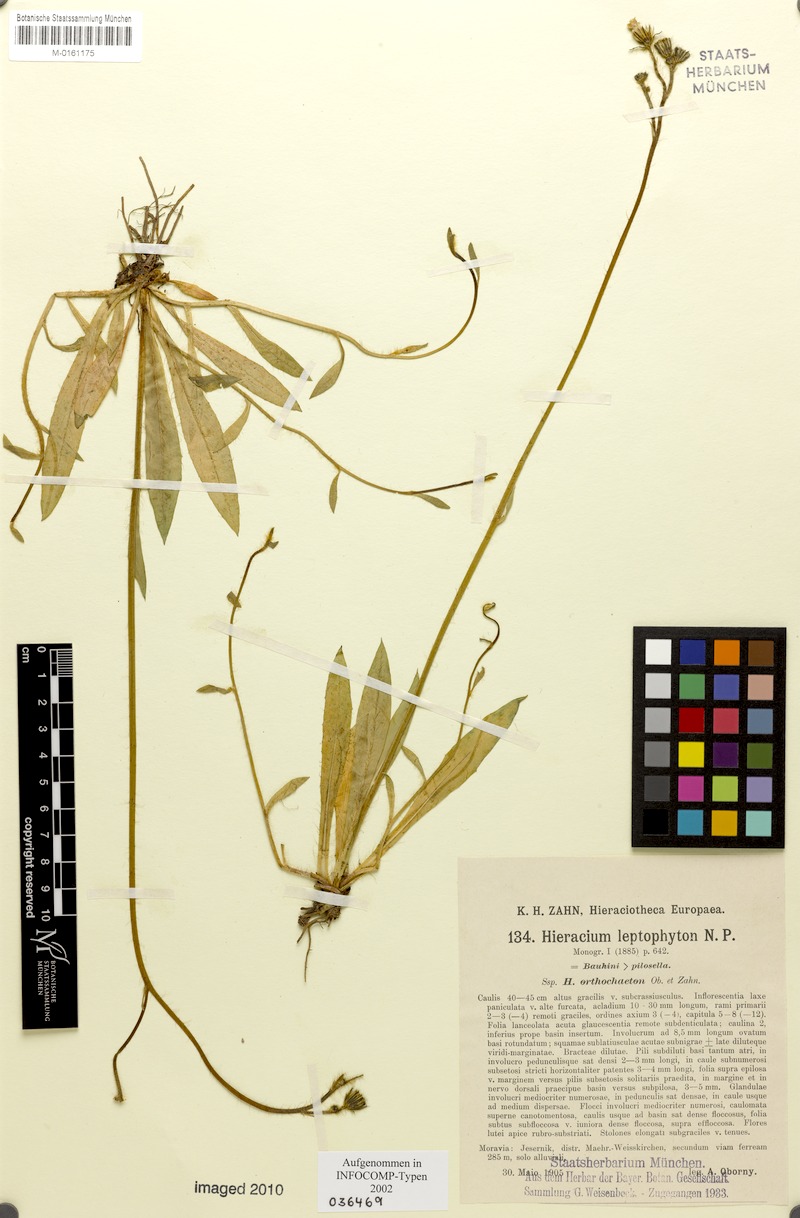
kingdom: Plantae
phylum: Tracheophyta
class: Magnoliopsida
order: Asterales
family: Asteraceae
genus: Pilosella
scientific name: Pilosella leptophyton
